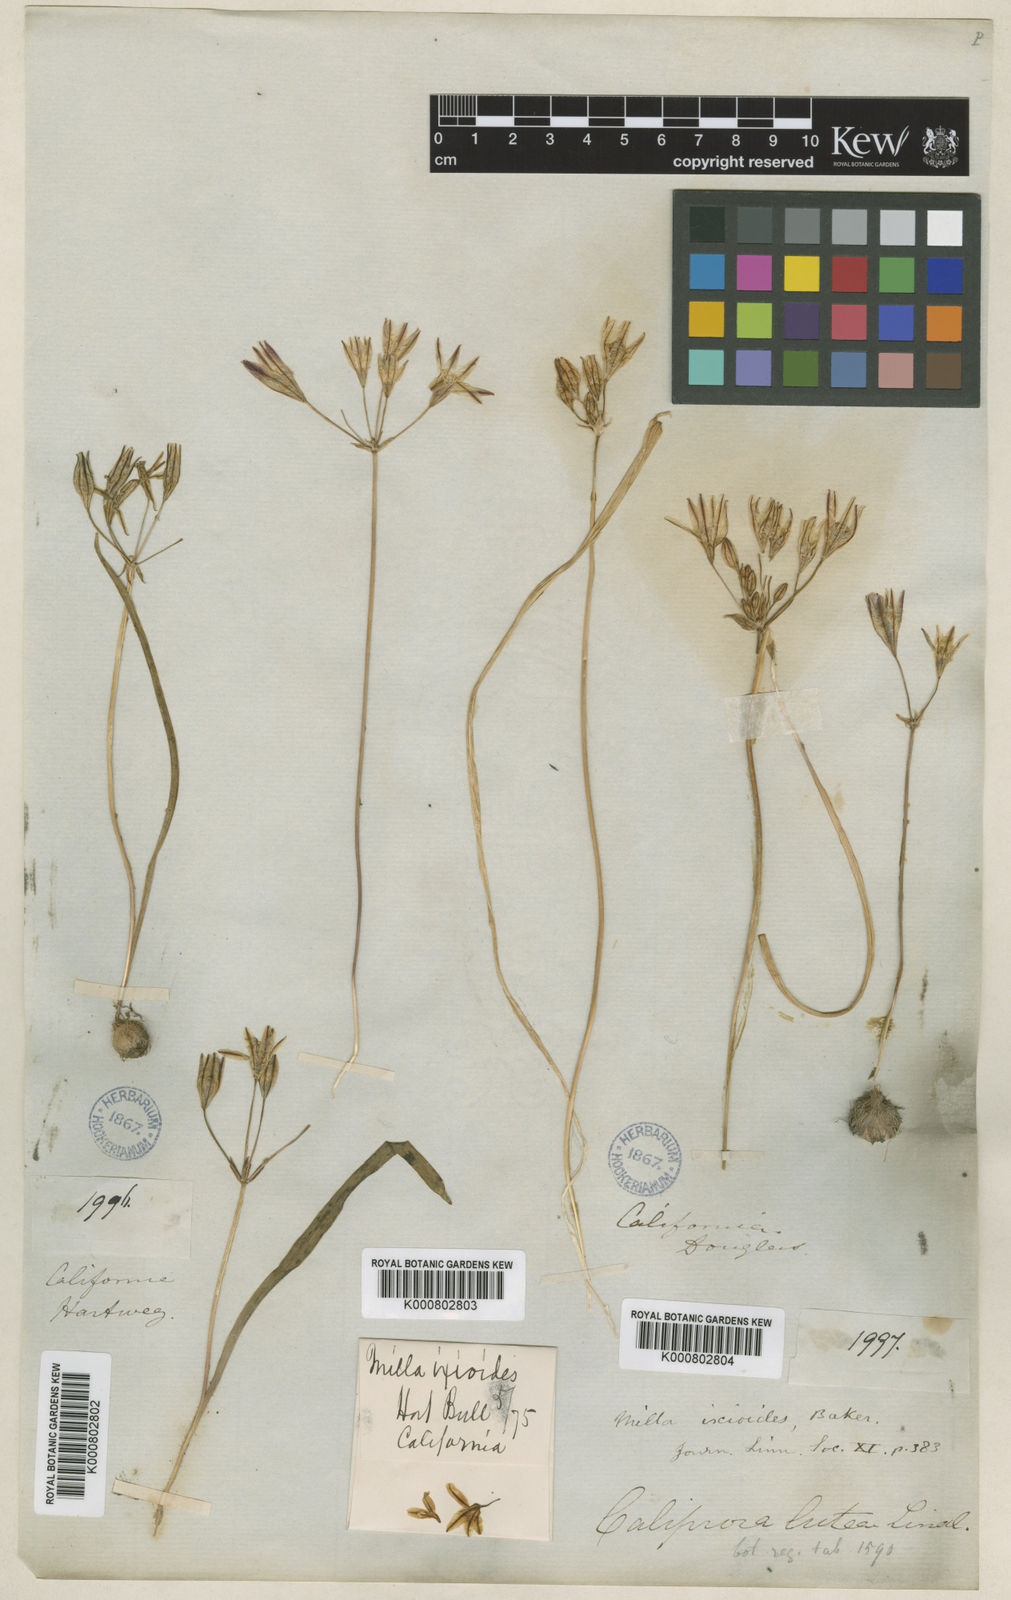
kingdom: Plantae
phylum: Tracheophyta
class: Liliopsida
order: Asparagales
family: Asparagaceae
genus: Triteleia
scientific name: Triteleia ixioides
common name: Yellow-brodiaea
